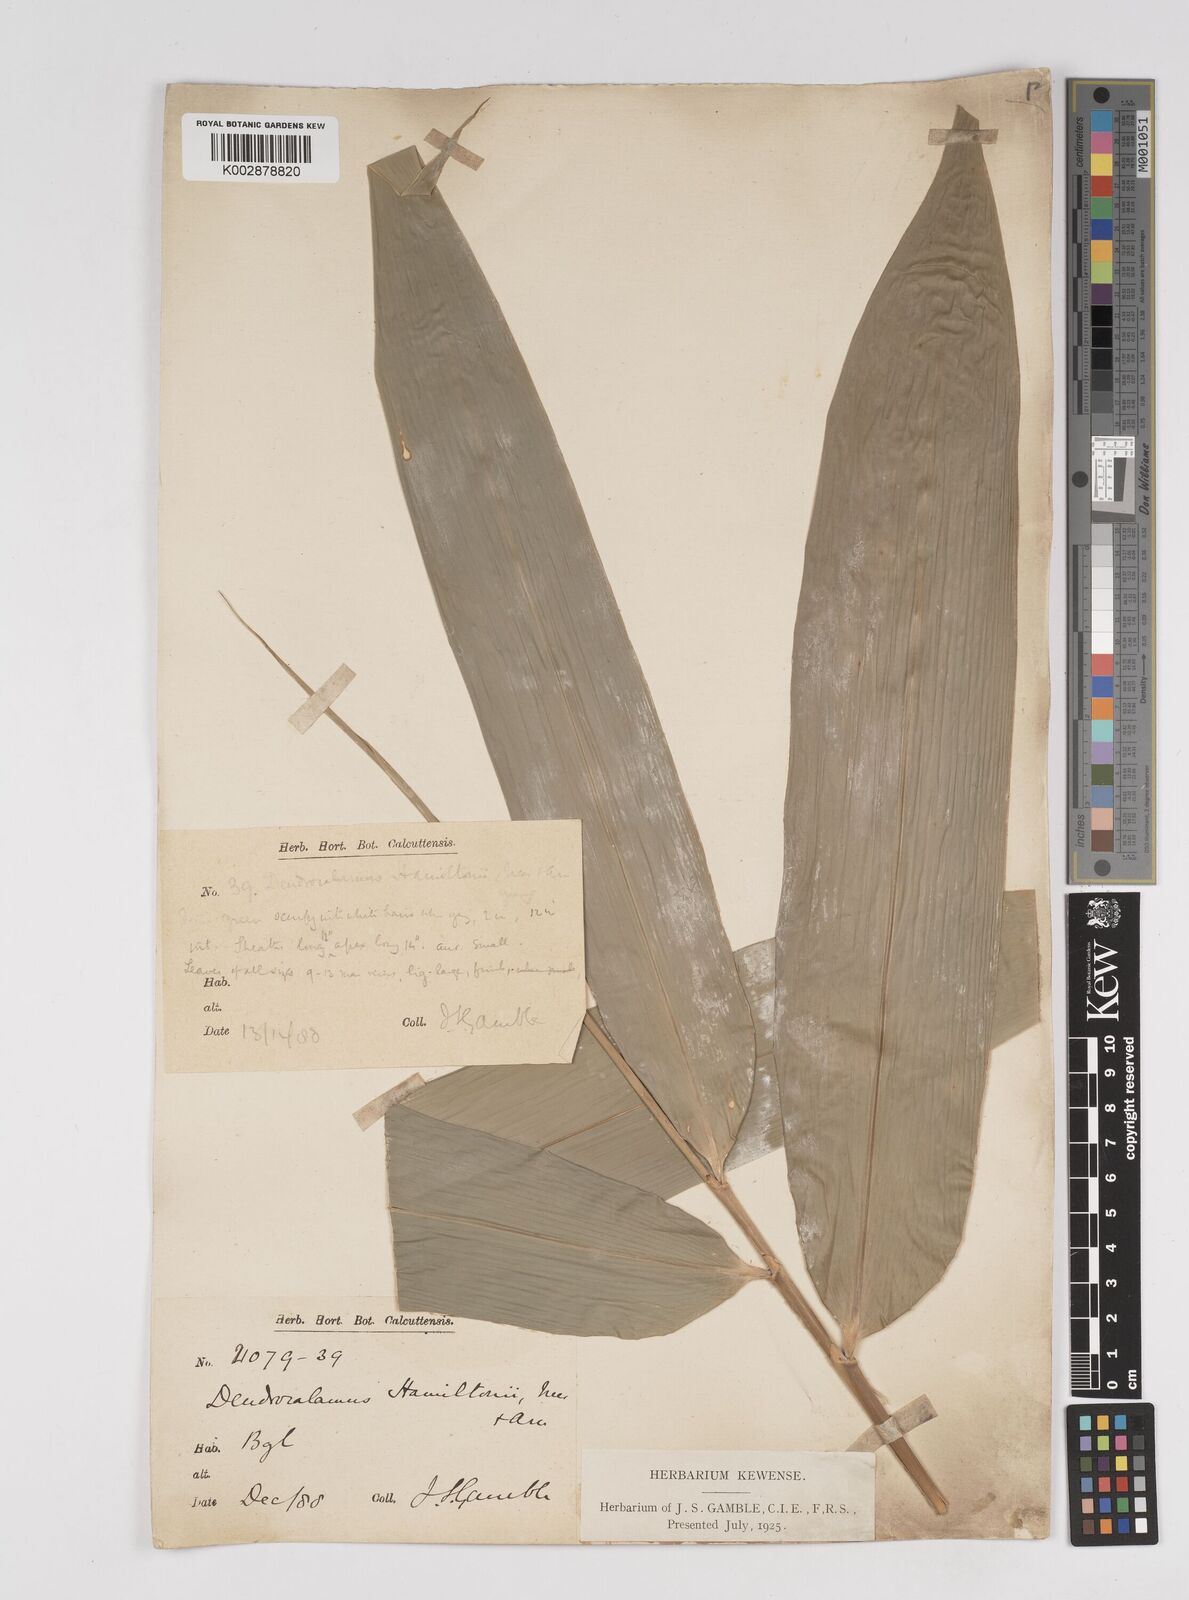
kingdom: Plantae
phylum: Tracheophyta
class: Liliopsida
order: Poales
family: Poaceae
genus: Dendrocalamus
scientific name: Dendrocalamus hamiltonii
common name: Tama bamboo
